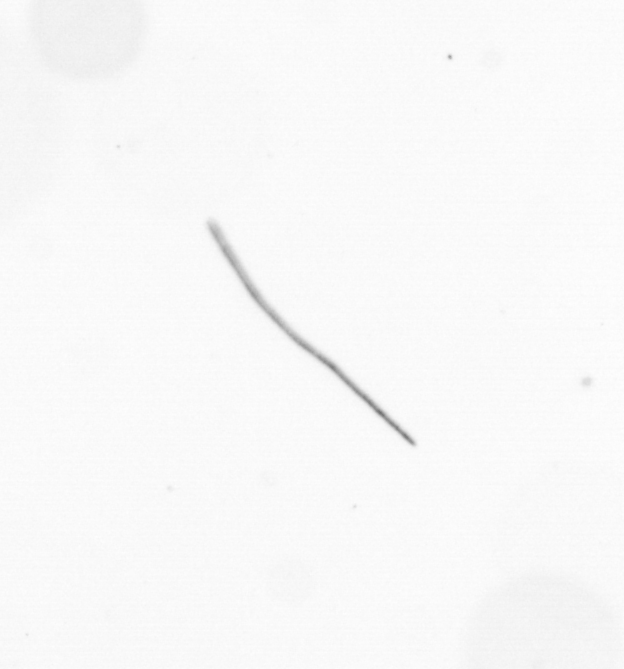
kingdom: Chromista
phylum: Ochrophyta
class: Bacillariophyceae
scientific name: Bacillariophyceae
